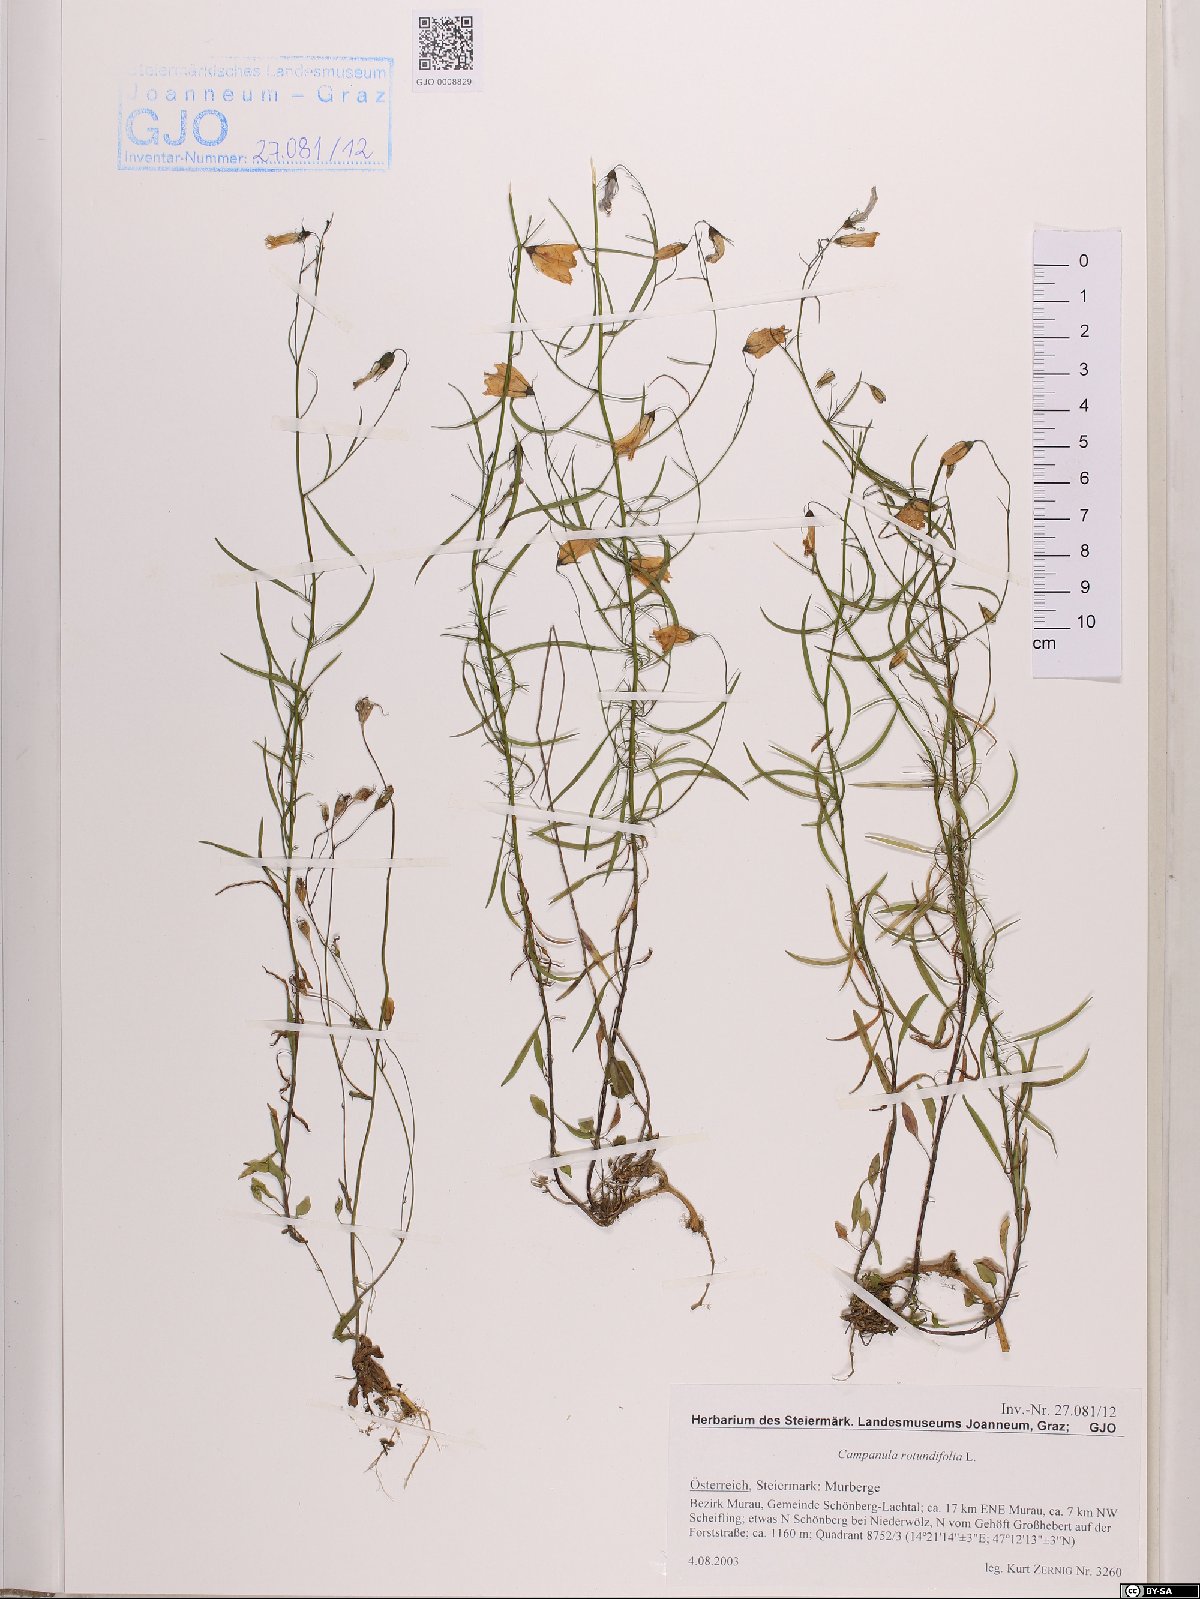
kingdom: Plantae
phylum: Tracheophyta
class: Magnoliopsida
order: Asterales
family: Campanulaceae
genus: Campanula
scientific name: Campanula rotundifolia
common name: Harebell
